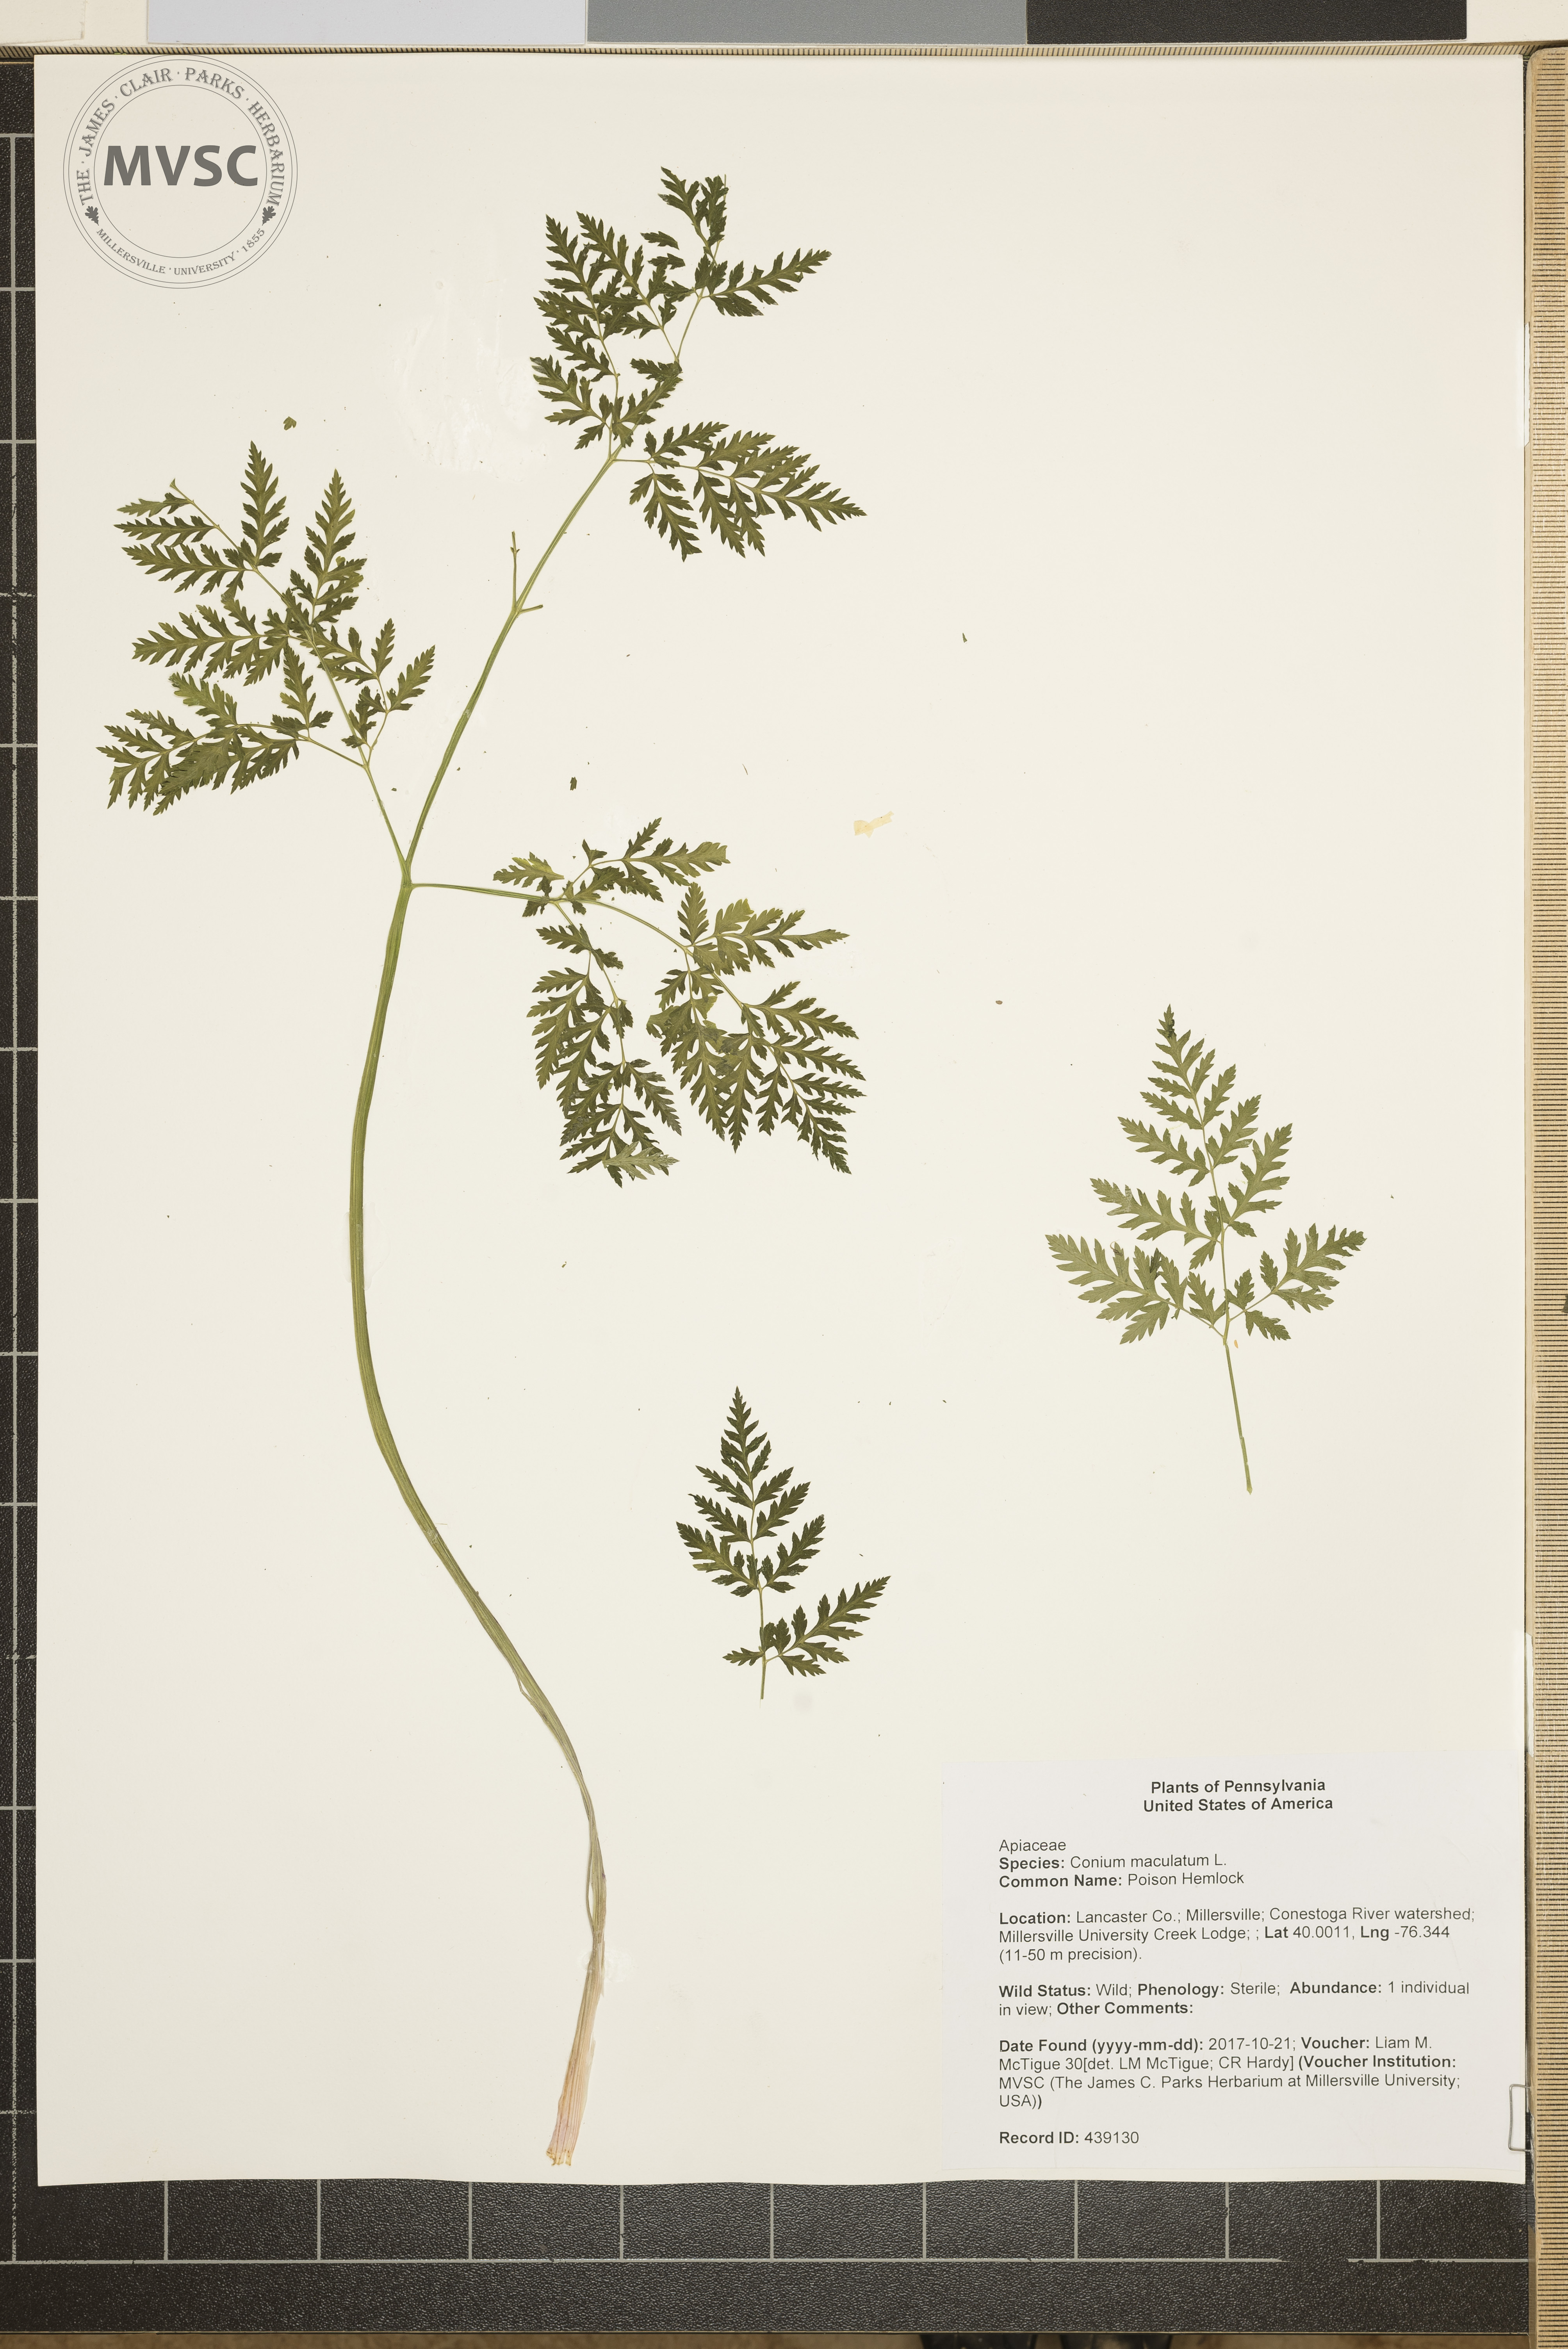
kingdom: Plantae
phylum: Tracheophyta
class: Magnoliopsida
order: Apiales
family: Apiaceae
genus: Conium
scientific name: Conium maculatum
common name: Poison Hemlock
